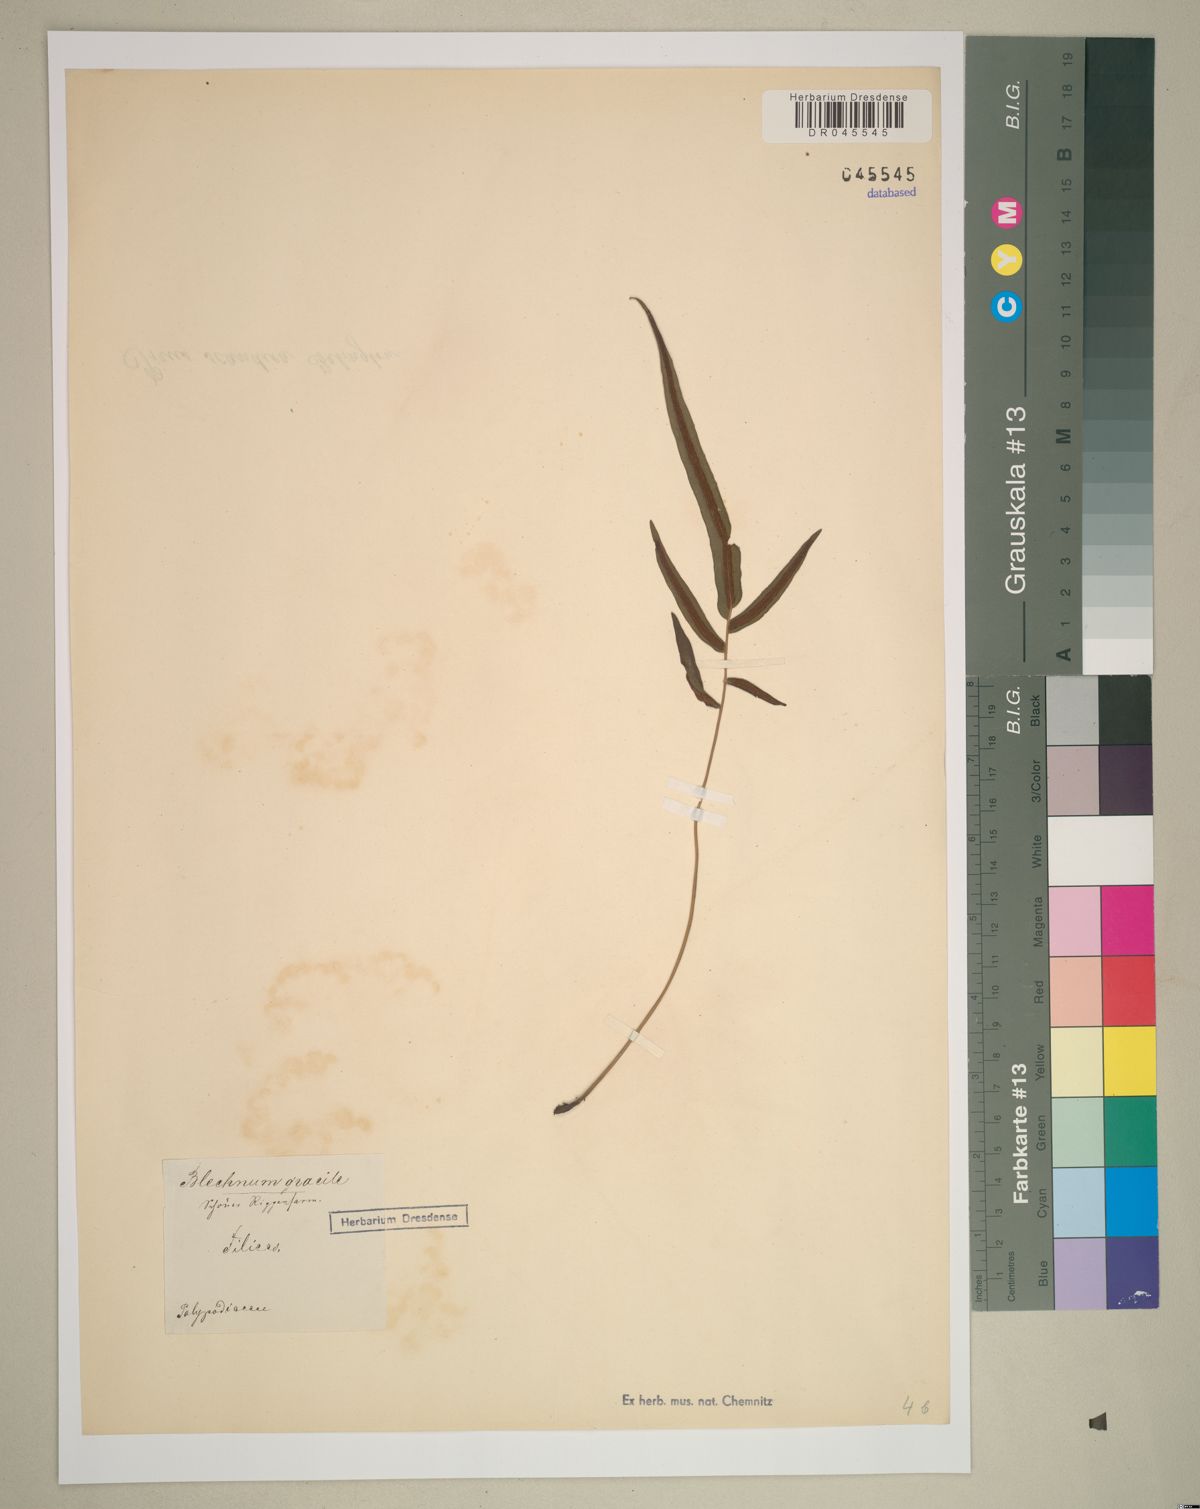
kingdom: Plantae
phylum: Tracheophyta
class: Polypodiopsida
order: Polypodiales
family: Blechnaceae
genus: Blechnum
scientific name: Blechnum gracile
